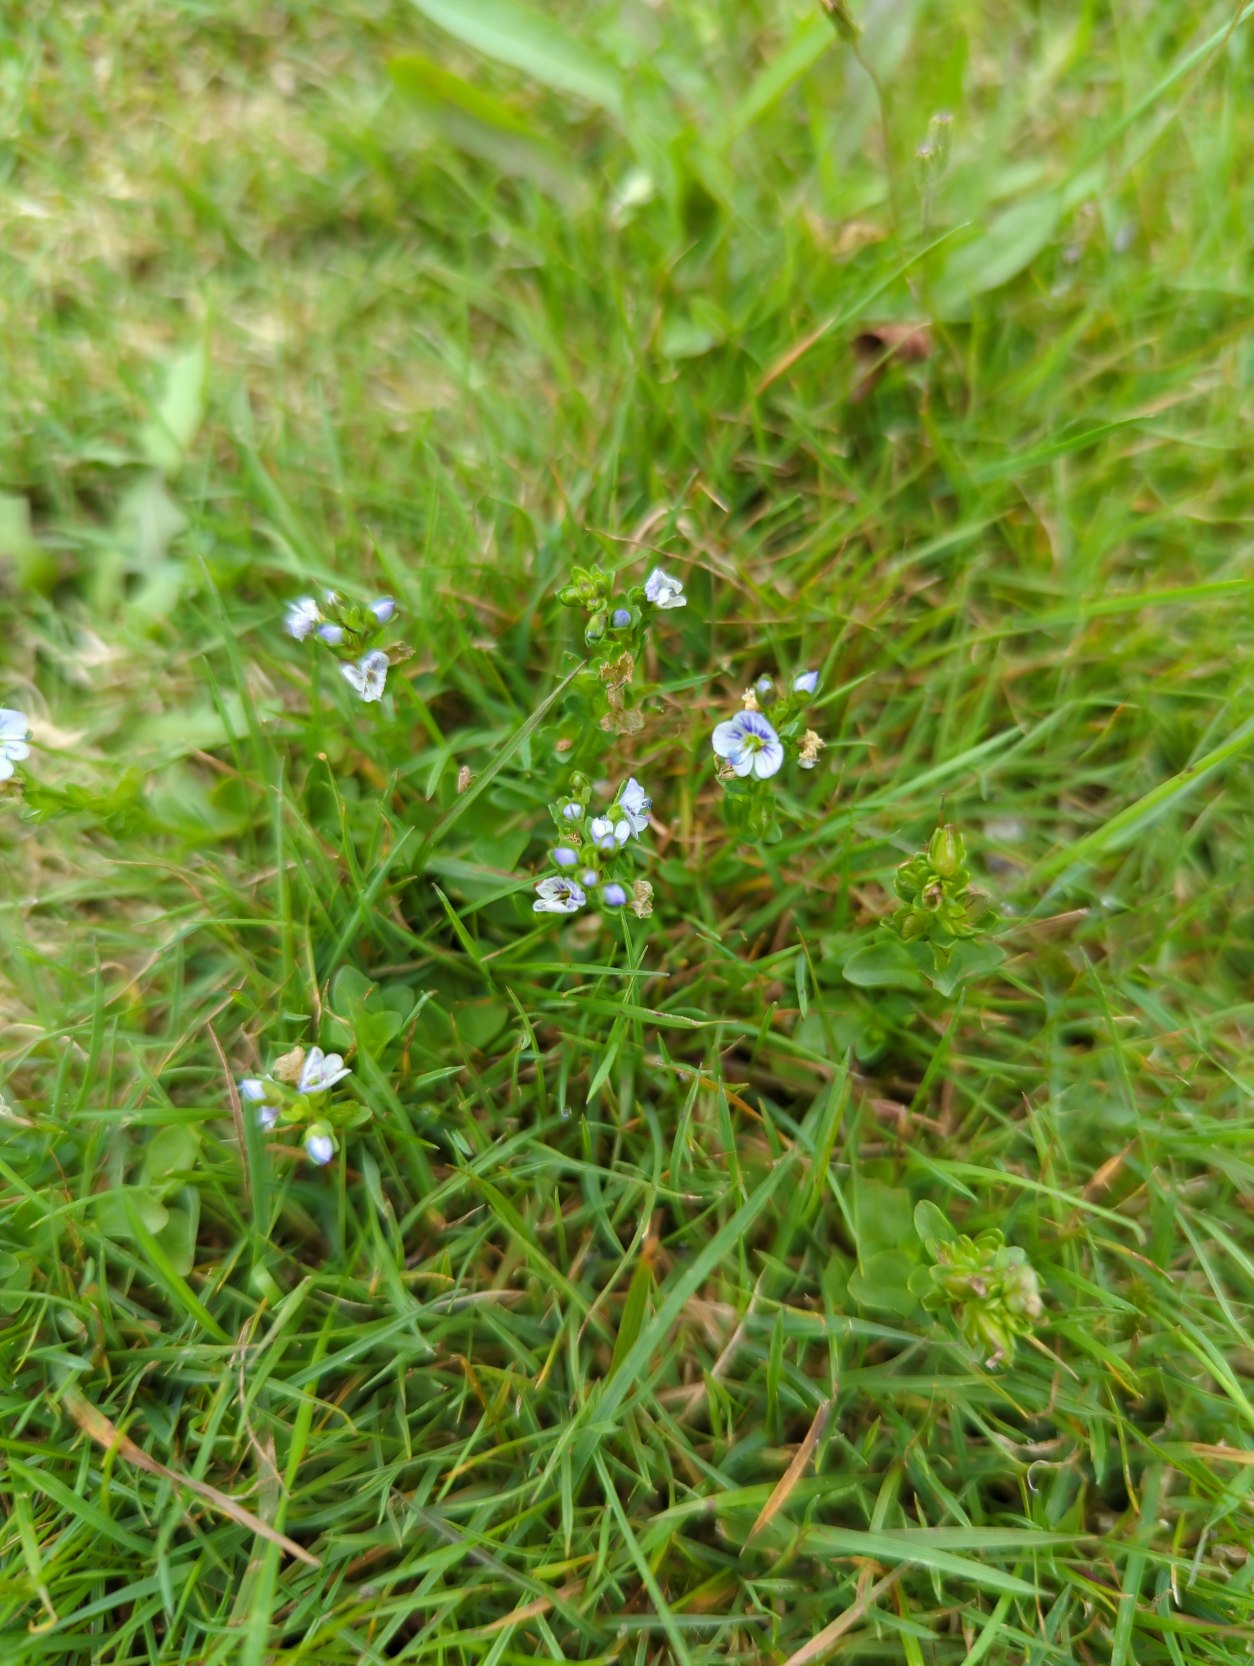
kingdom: Plantae
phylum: Tracheophyta
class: Magnoliopsida
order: Lamiales
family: Plantaginaceae
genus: Veronica
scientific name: Veronica serpyllifolia
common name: Glat ærenpris
